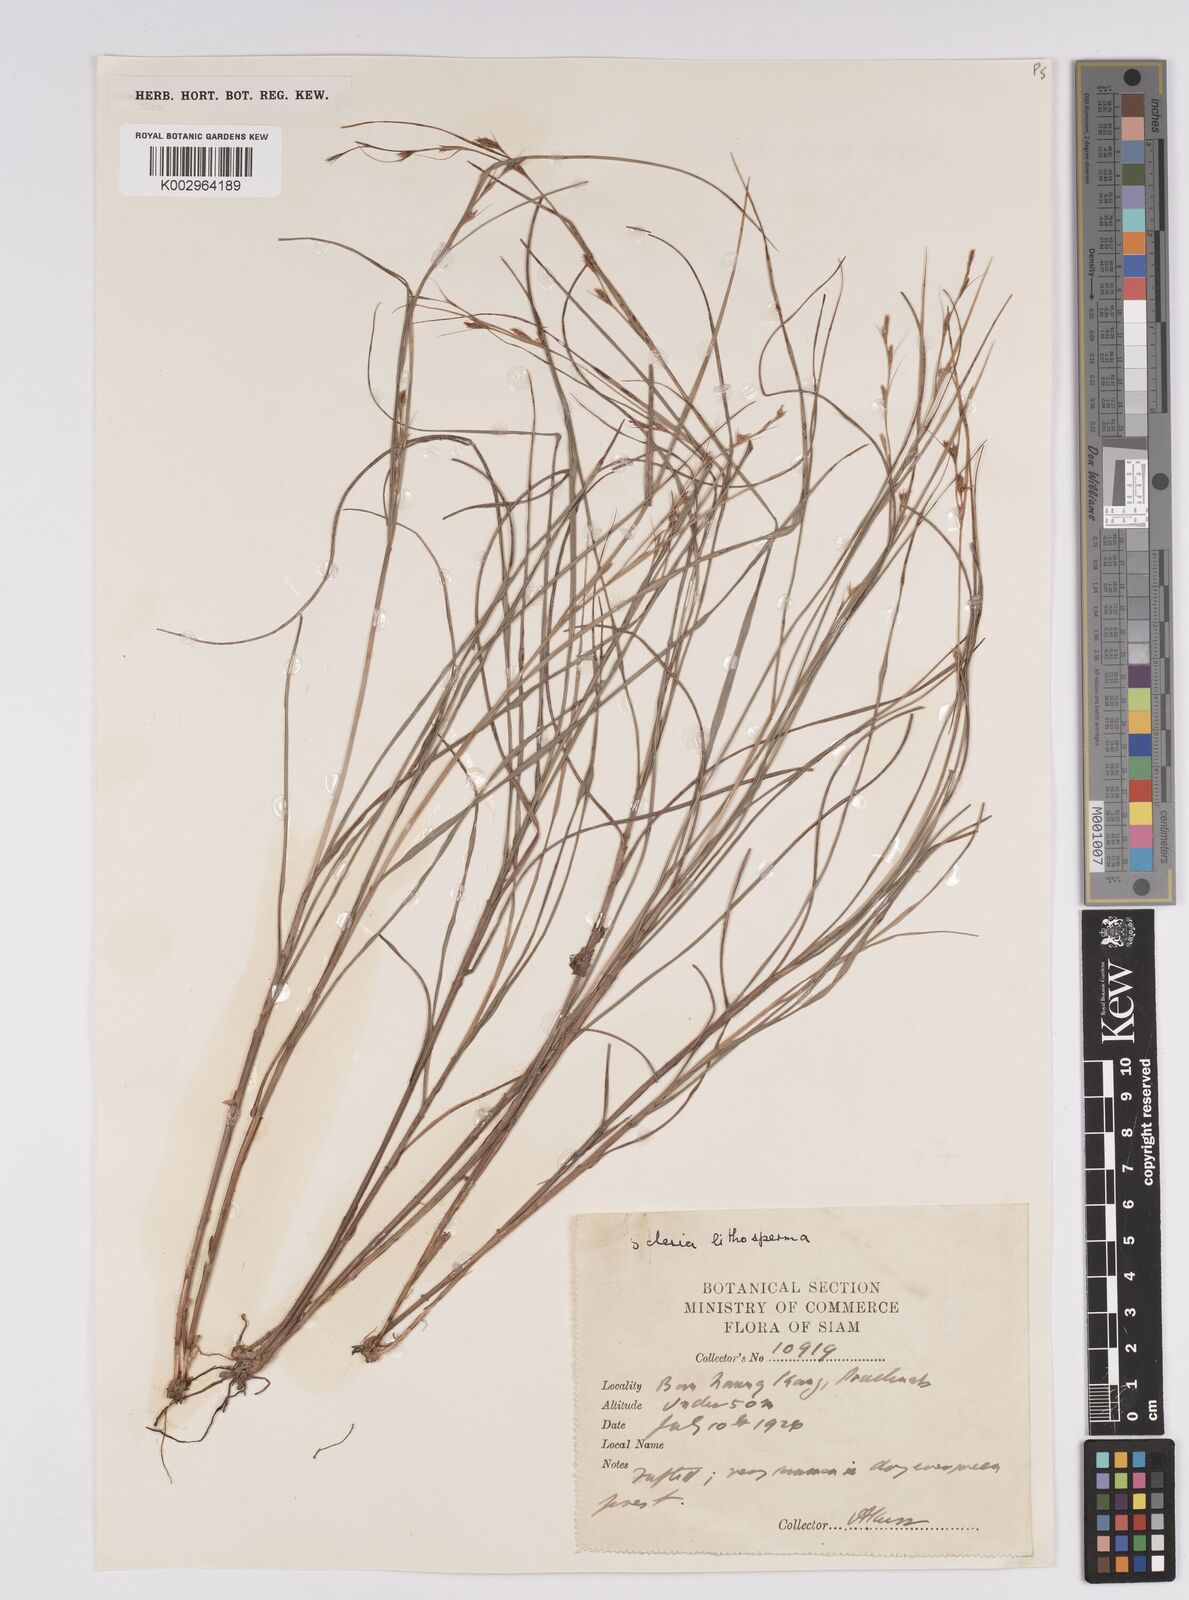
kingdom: Plantae
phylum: Tracheophyta
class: Liliopsida
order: Poales
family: Cyperaceae
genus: Scleria
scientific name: Scleria lithosperma
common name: Florida keys nut-rush
